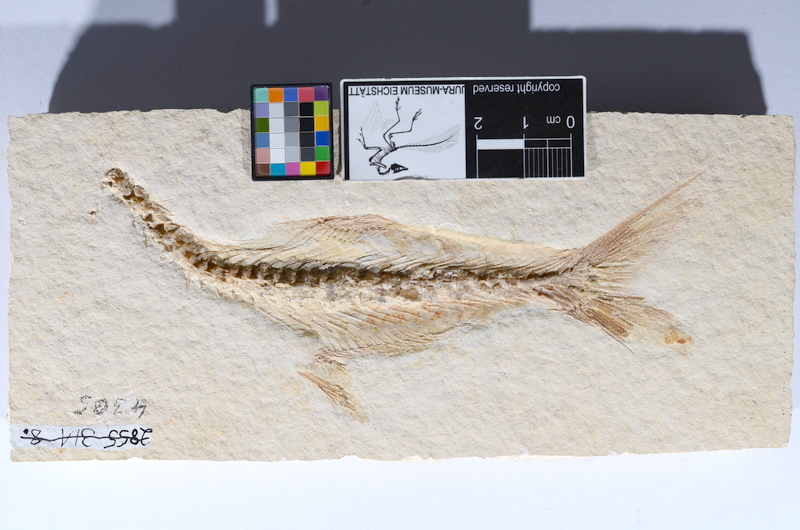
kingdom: Animalia
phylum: Chordata
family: Allothrissopidae
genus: Allothrissops
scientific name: Allothrissops mesogaster
